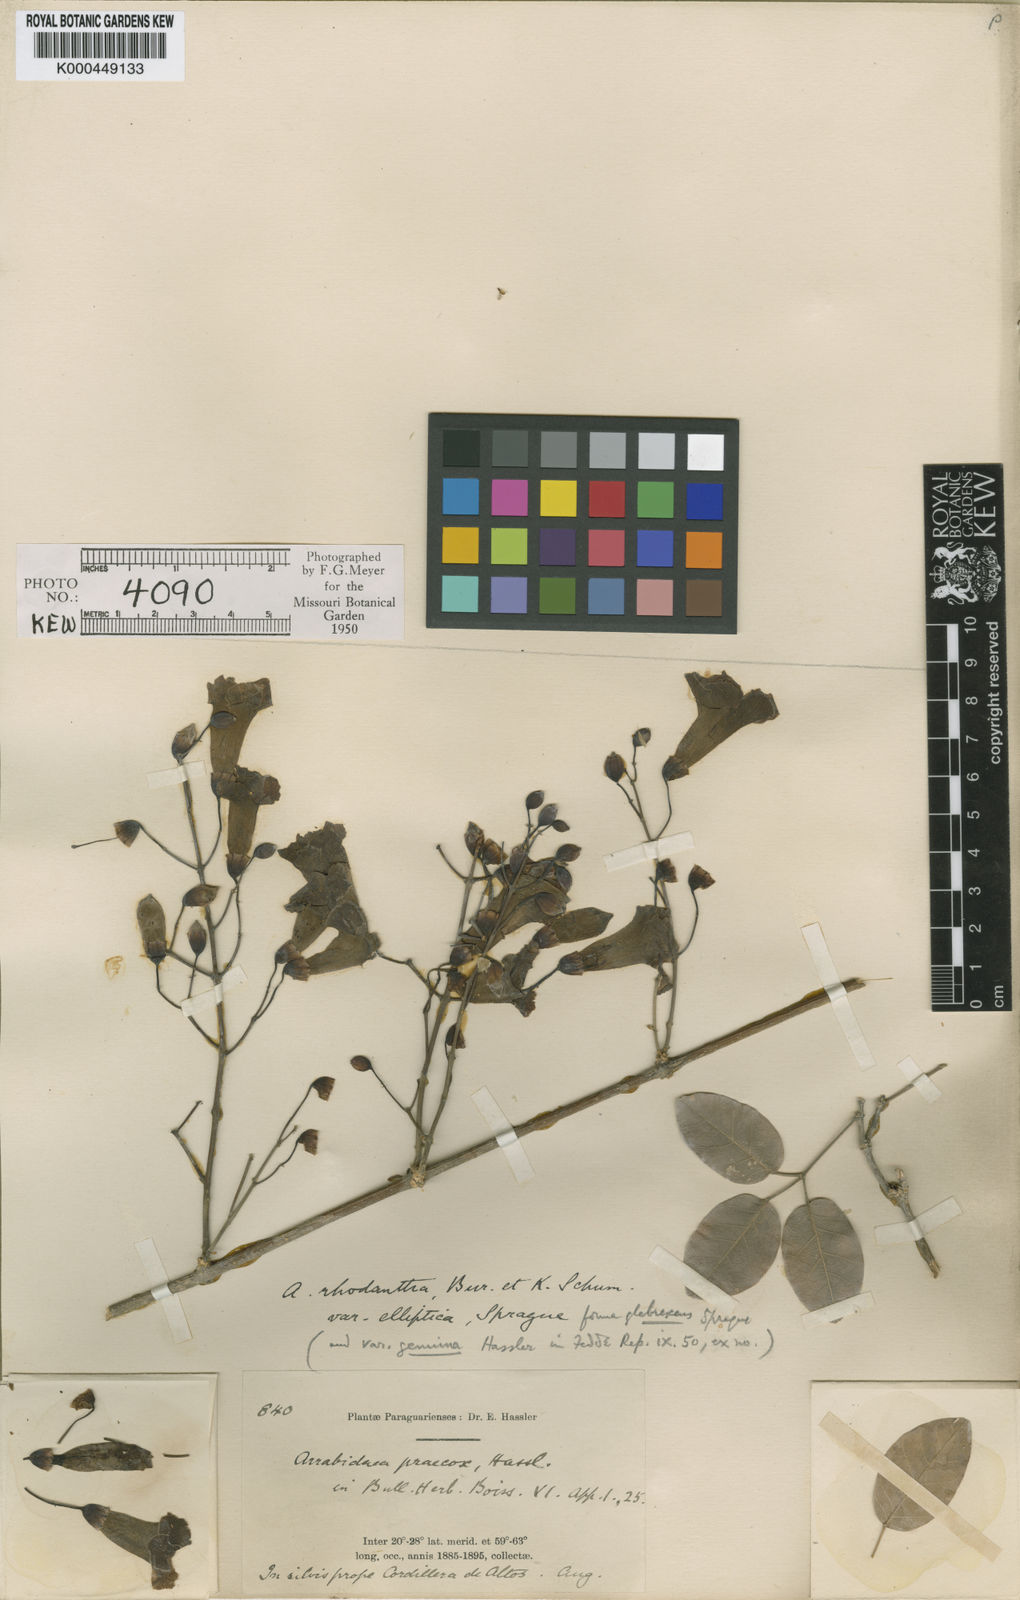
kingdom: Plantae
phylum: Tracheophyta
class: Magnoliopsida
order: Lamiales
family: Bignoniaceae
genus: Tanaecium
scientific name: Tanaecium dichotomum
